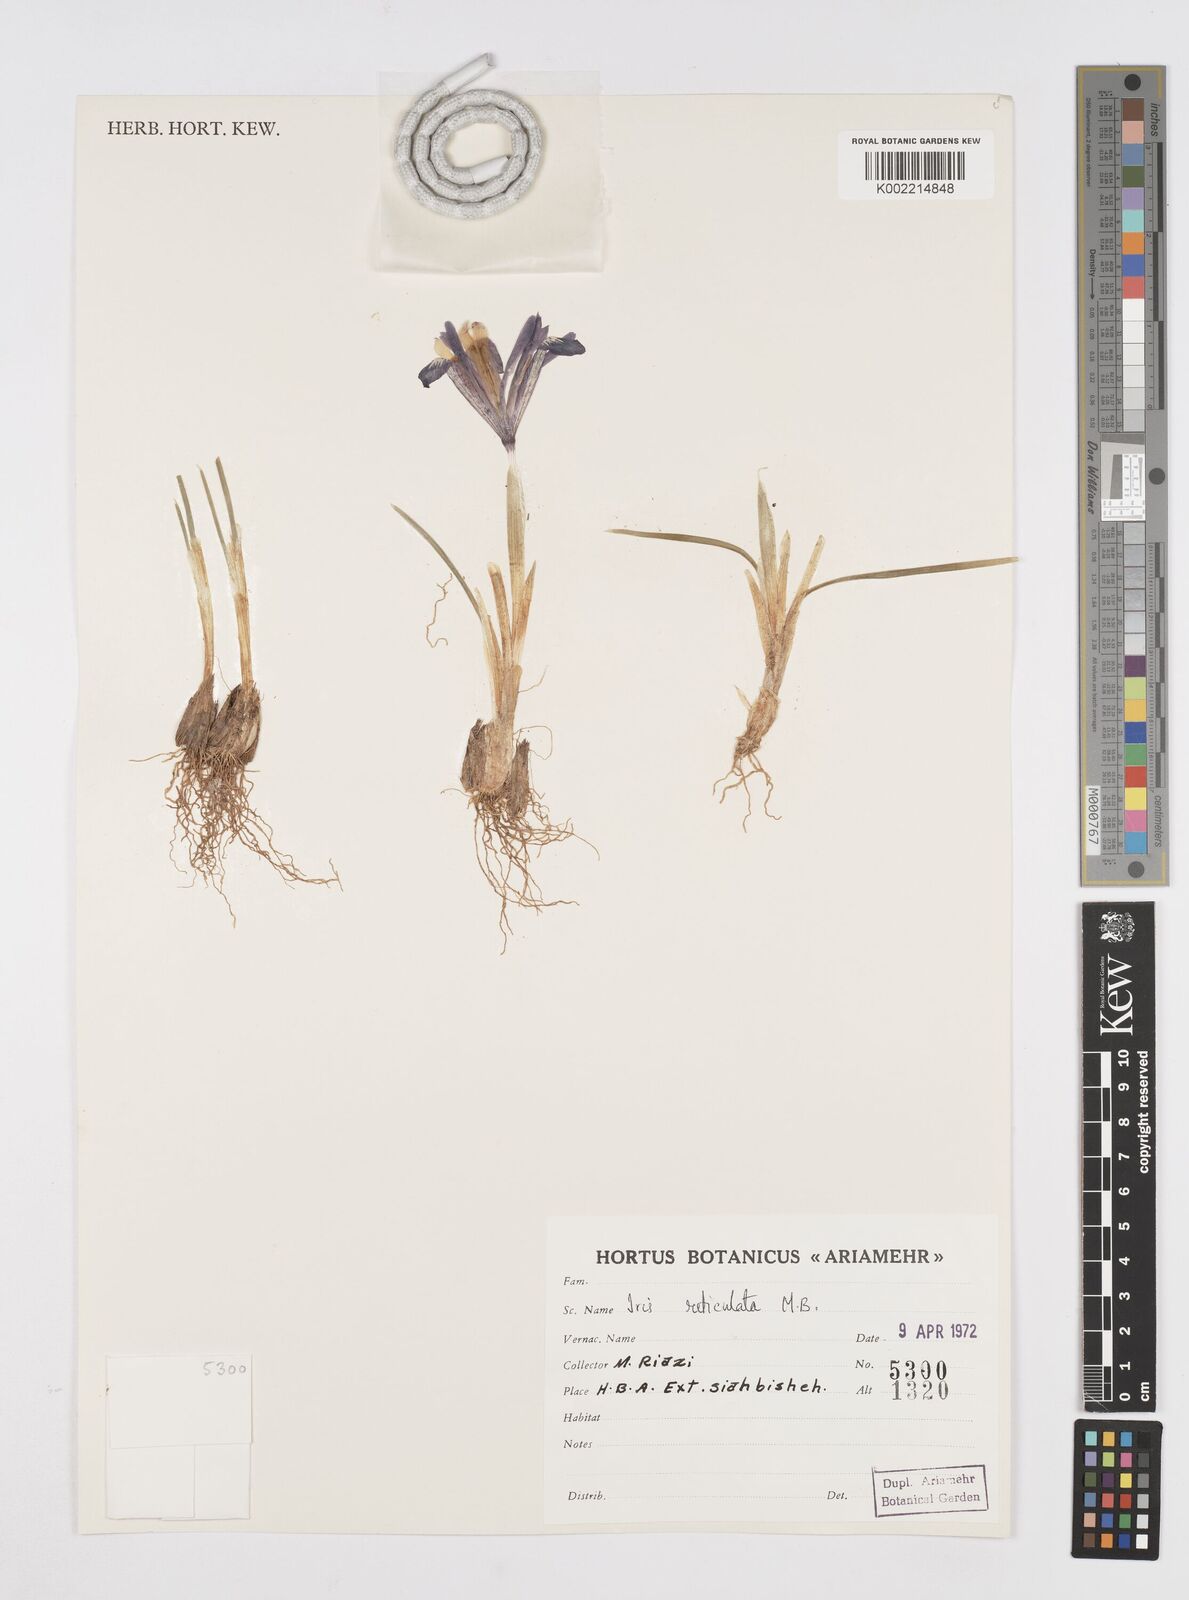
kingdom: Plantae
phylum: Tracheophyta
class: Liliopsida
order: Asparagales
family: Iridaceae
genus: Iris
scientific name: Iris reticulata
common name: Netted iris
